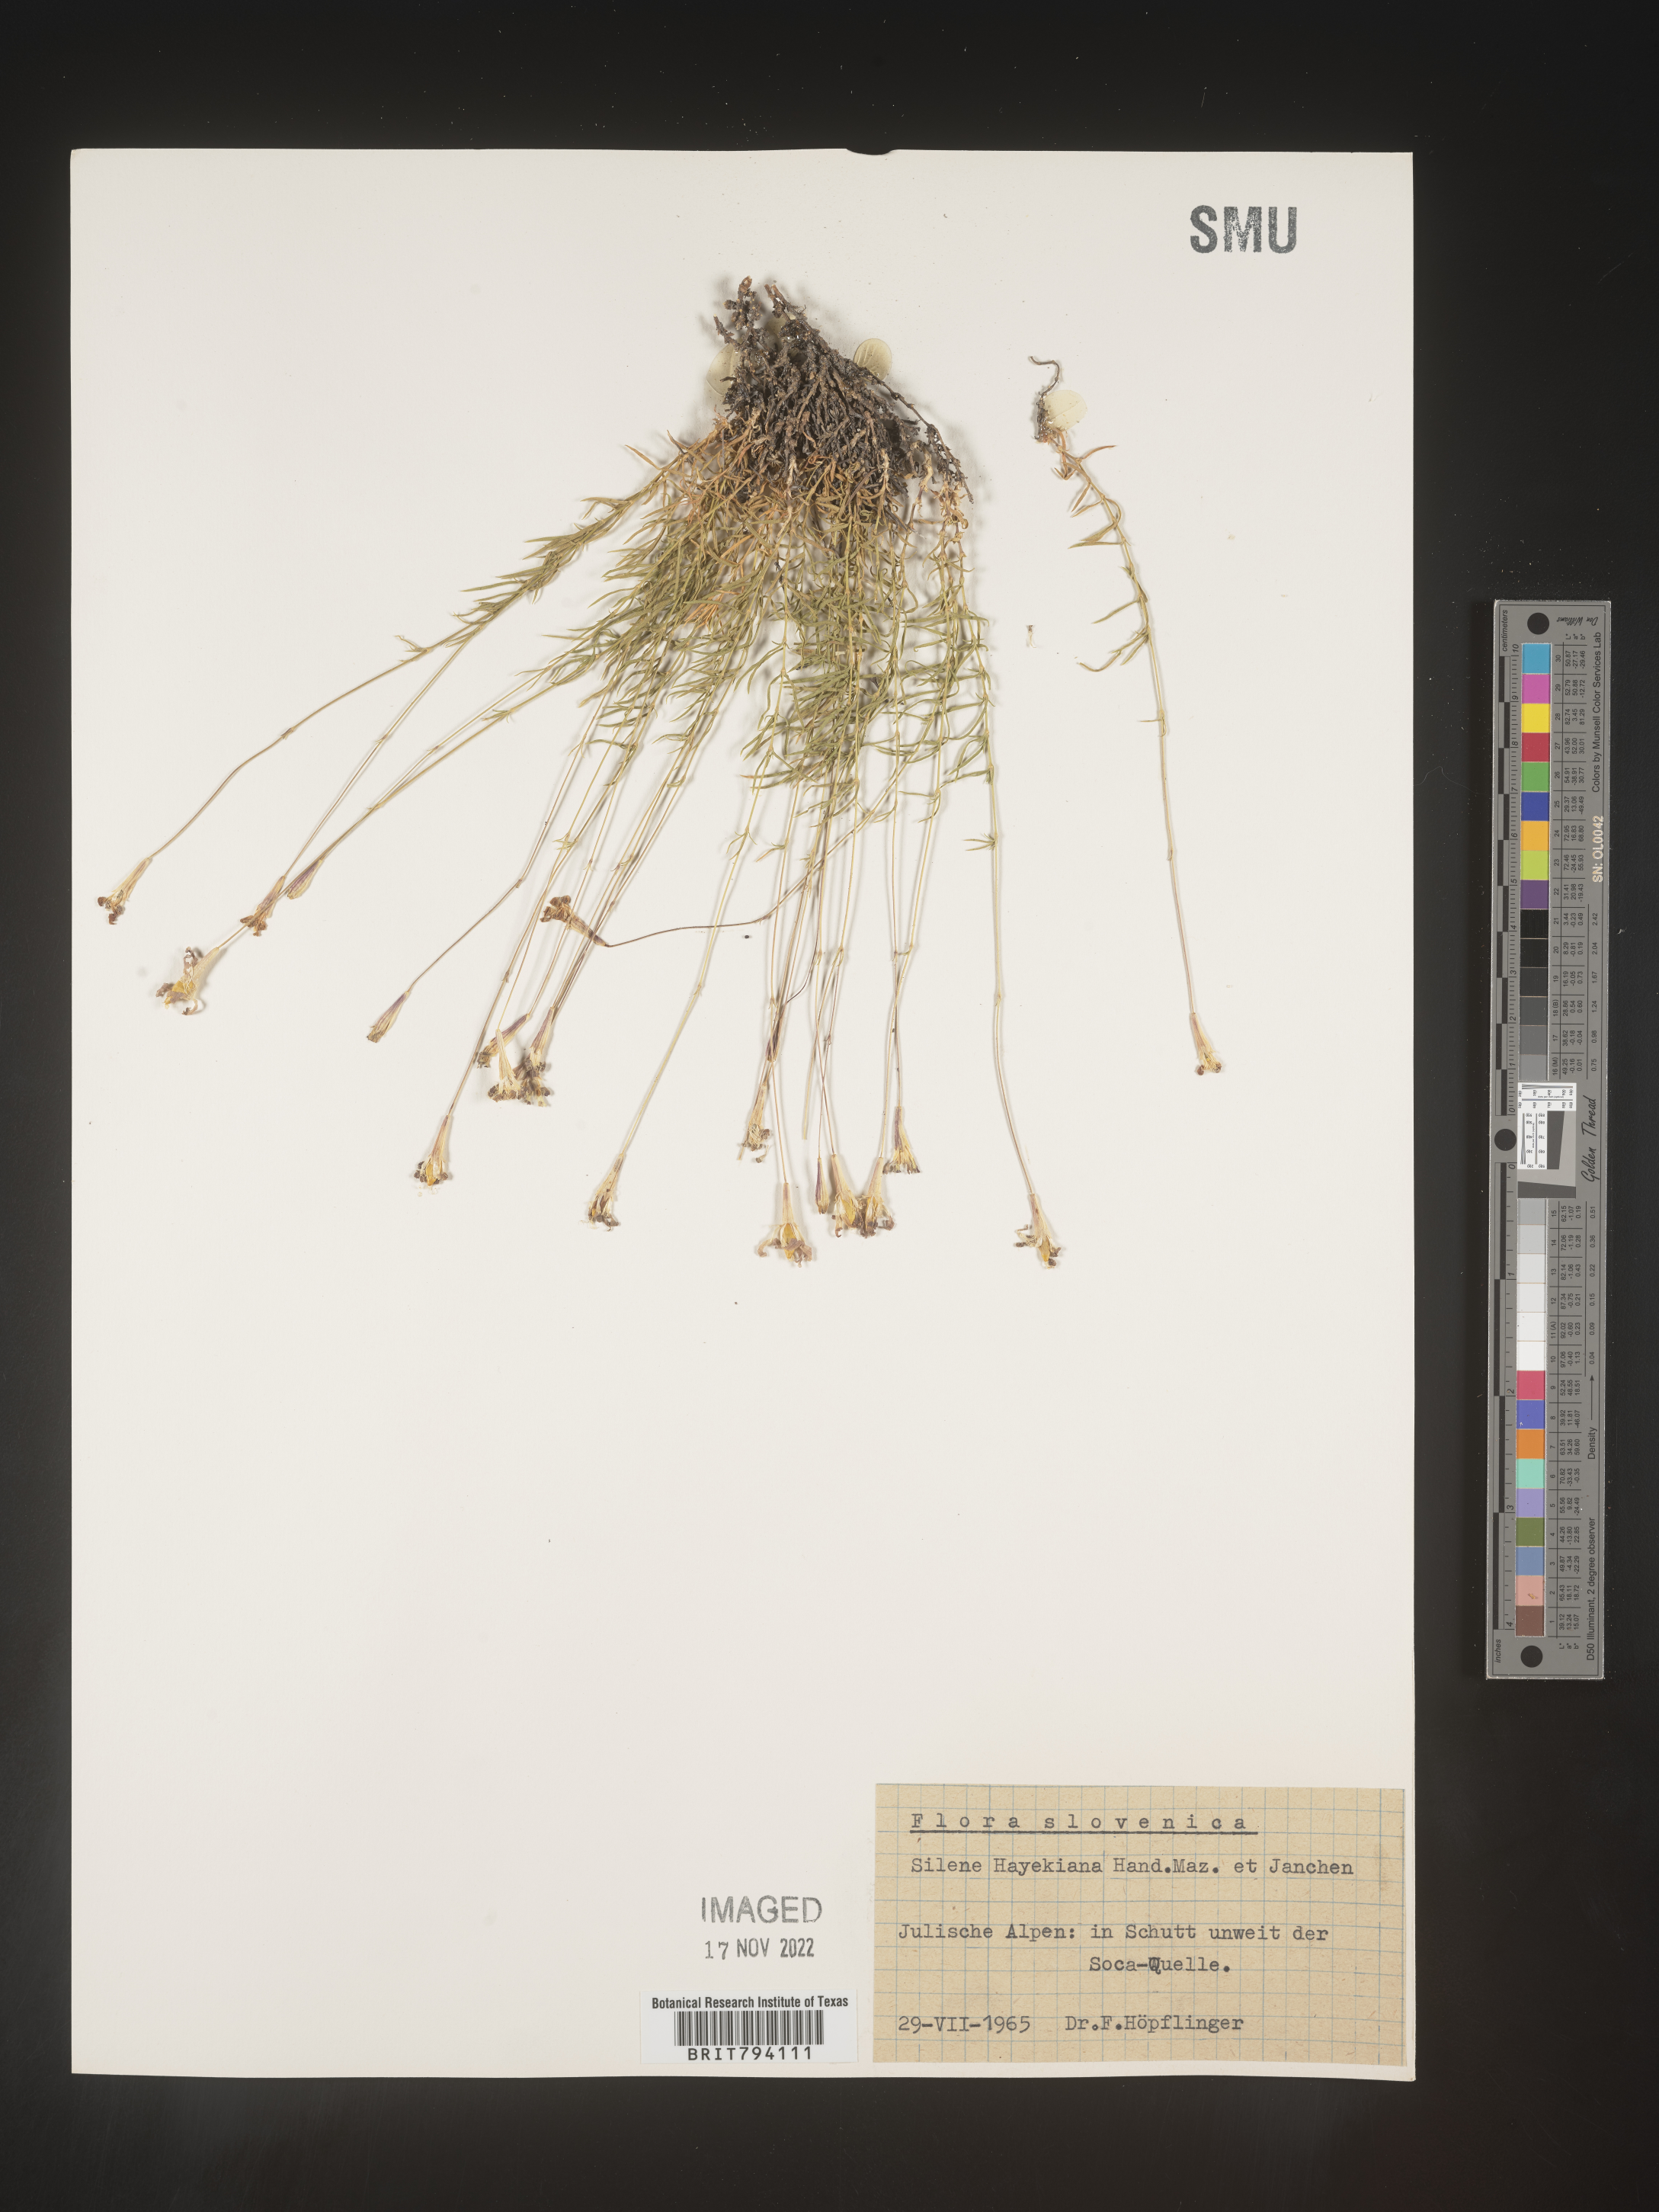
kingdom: Plantae
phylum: Tracheophyta
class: Magnoliopsida
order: Caryophyllales
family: Caryophyllaceae
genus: Silene
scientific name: Silene hayekiana
